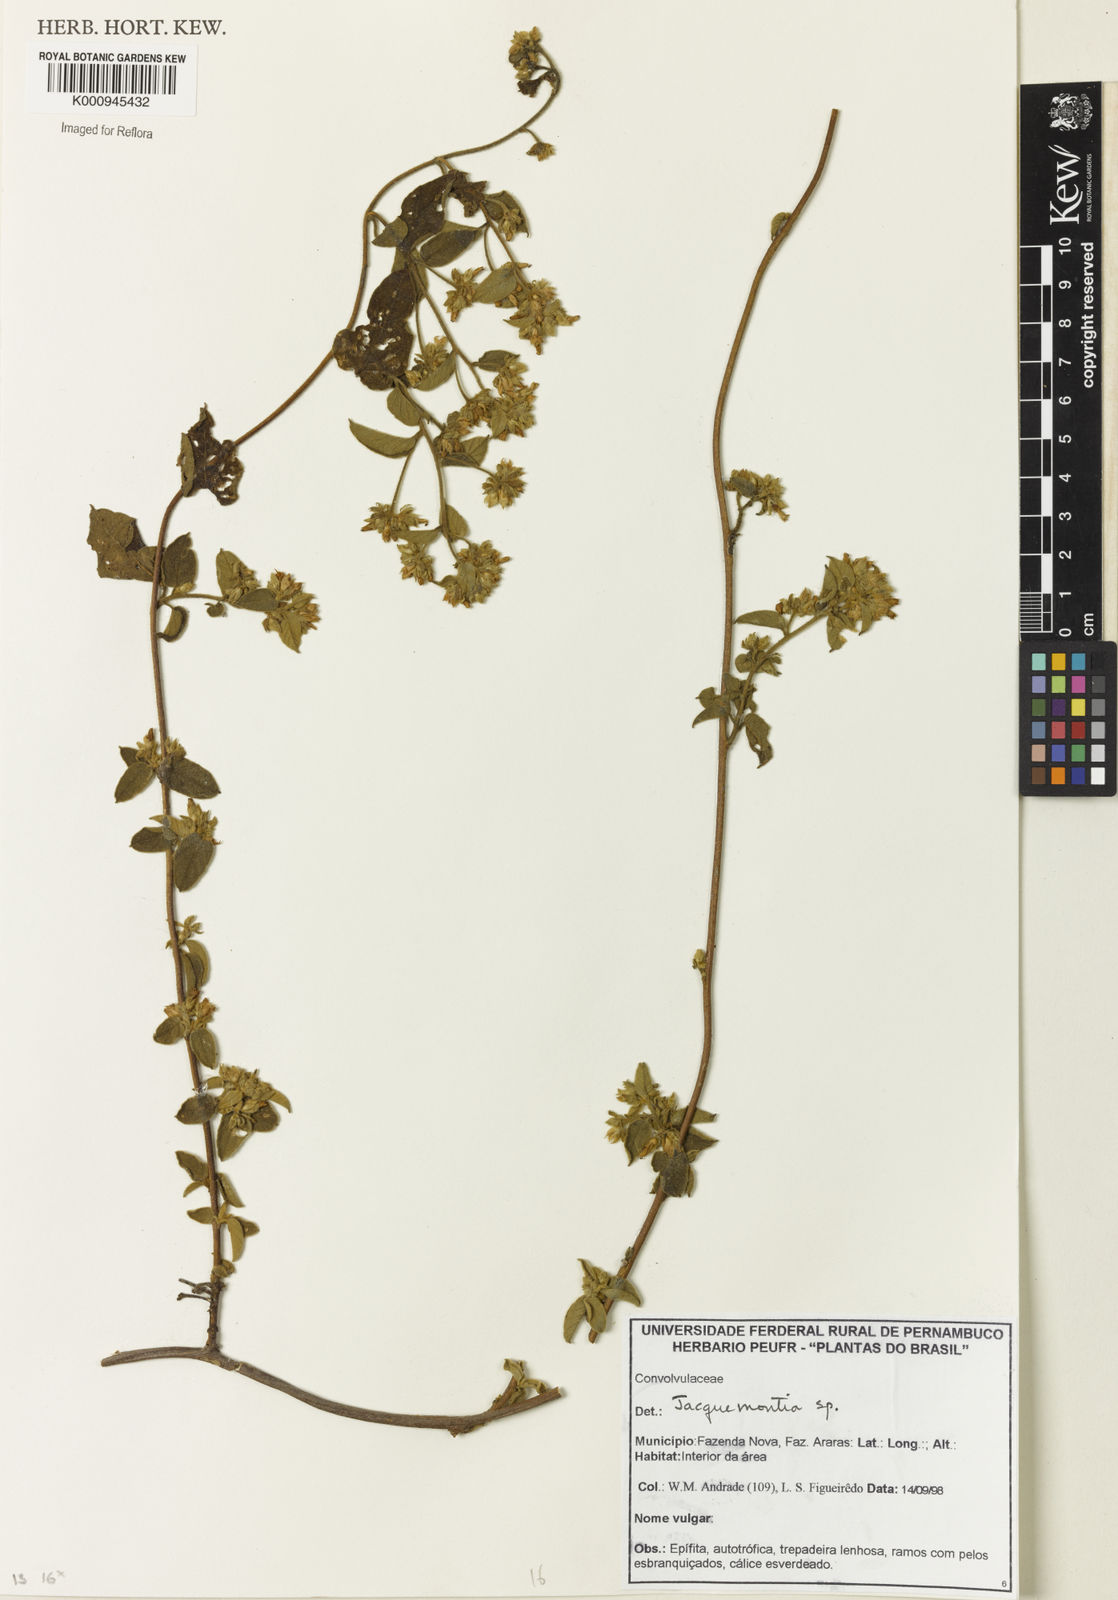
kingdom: Plantae
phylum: Tracheophyta
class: Magnoliopsida
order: Solanales
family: Convolvulaceae
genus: Jacquemontia
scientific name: Jacquemontia
